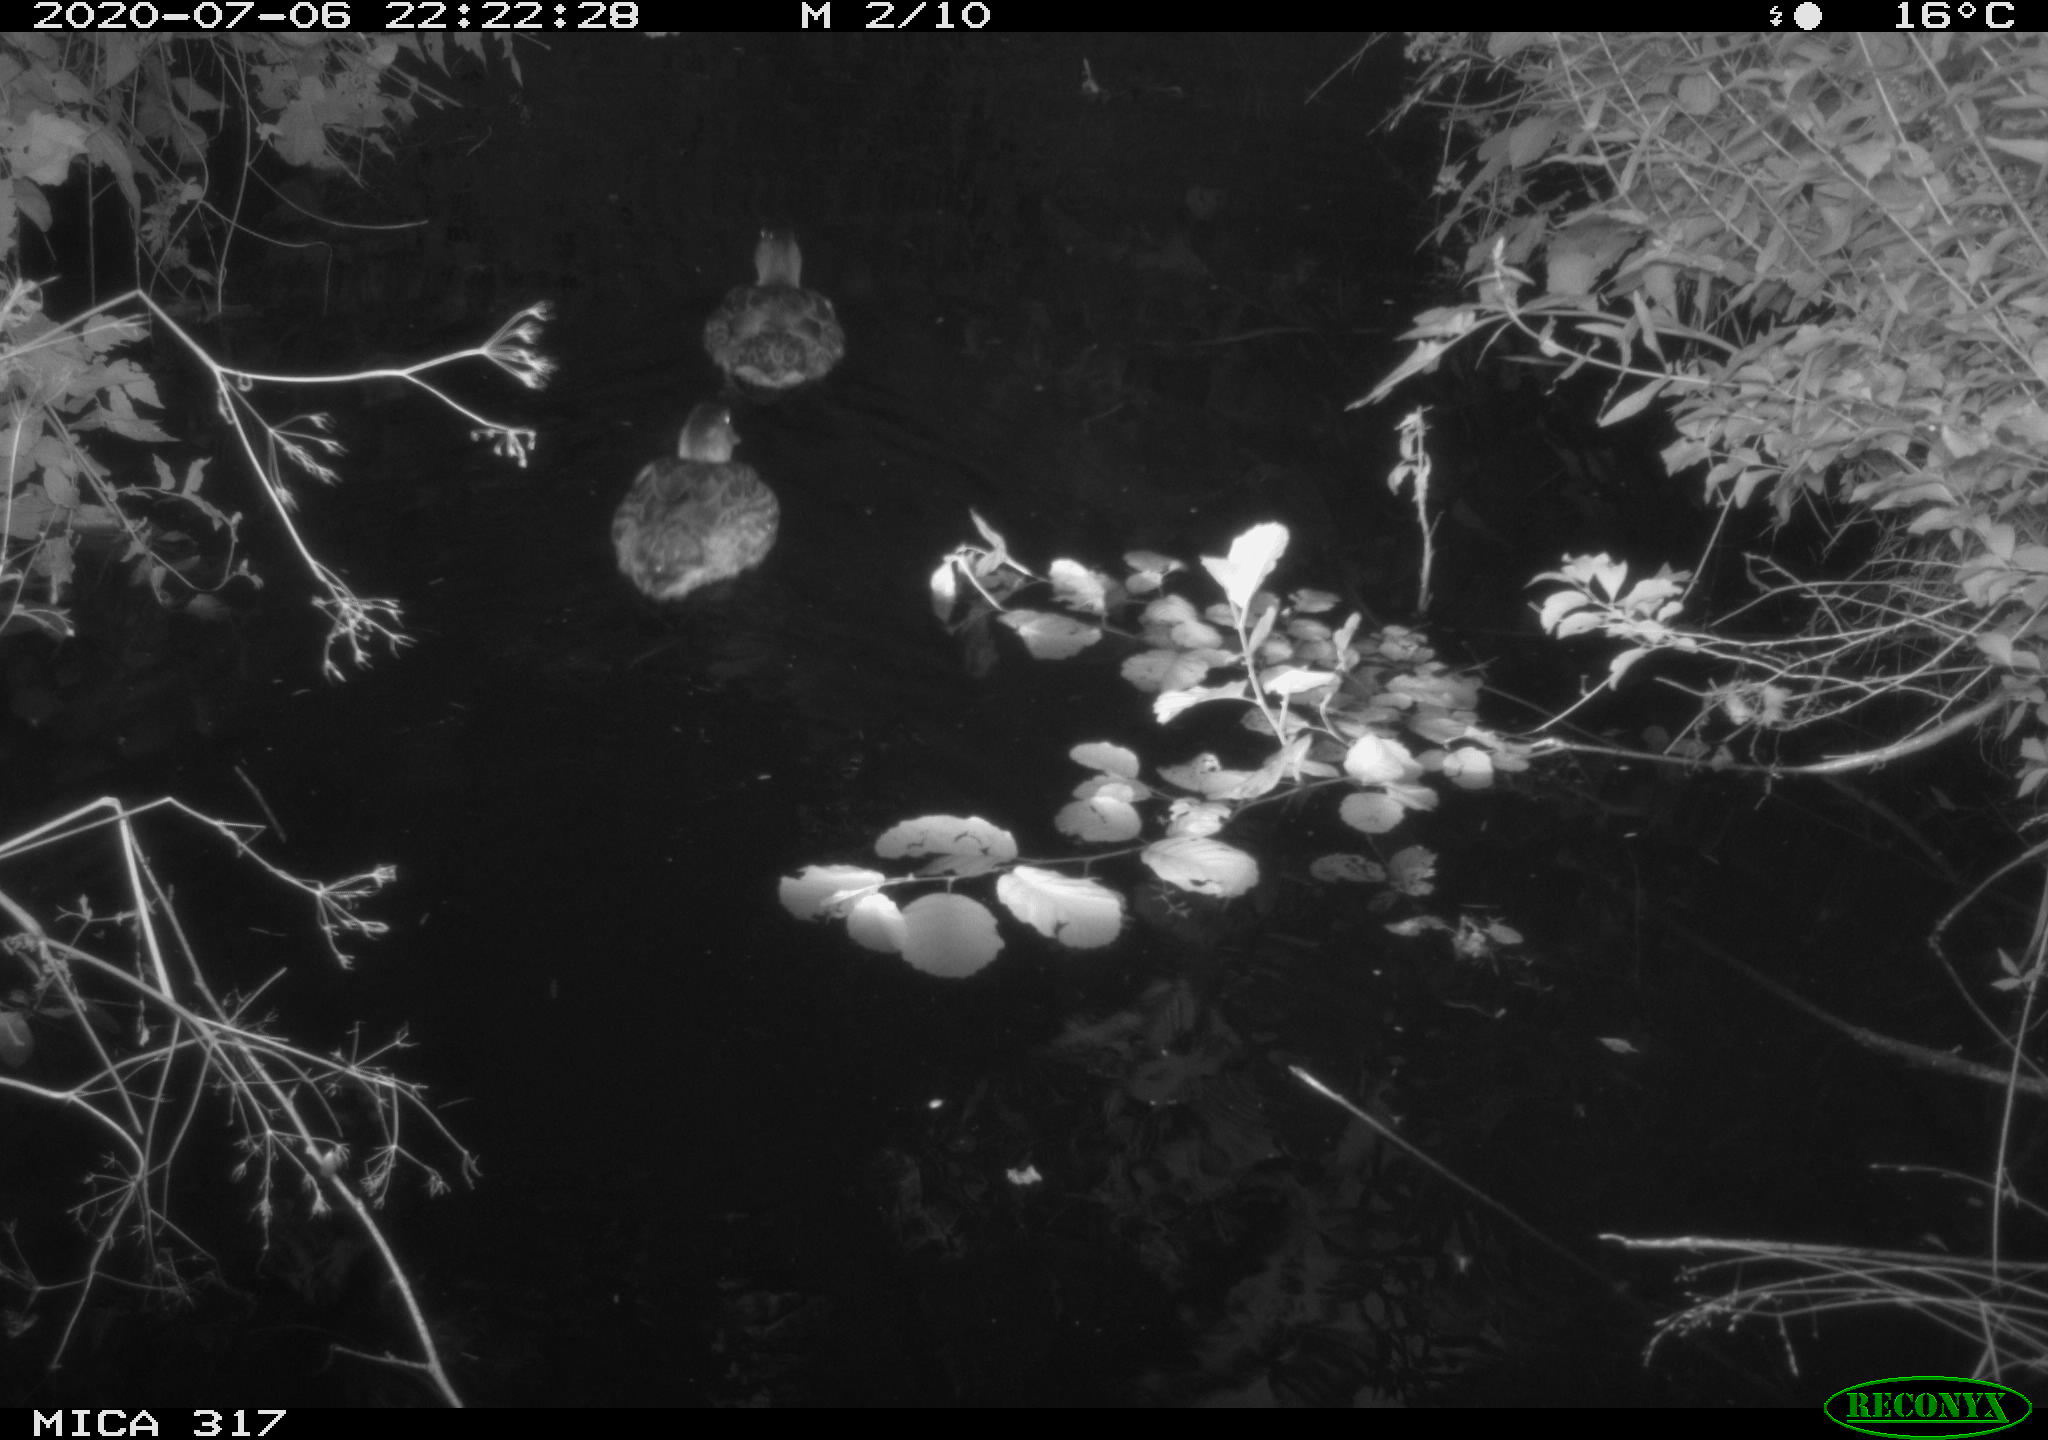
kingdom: Animalia
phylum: Chordata
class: Aves
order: Anseriformes
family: Anatidae
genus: Anas
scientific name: Anas platyrhynchos
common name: Mallard
